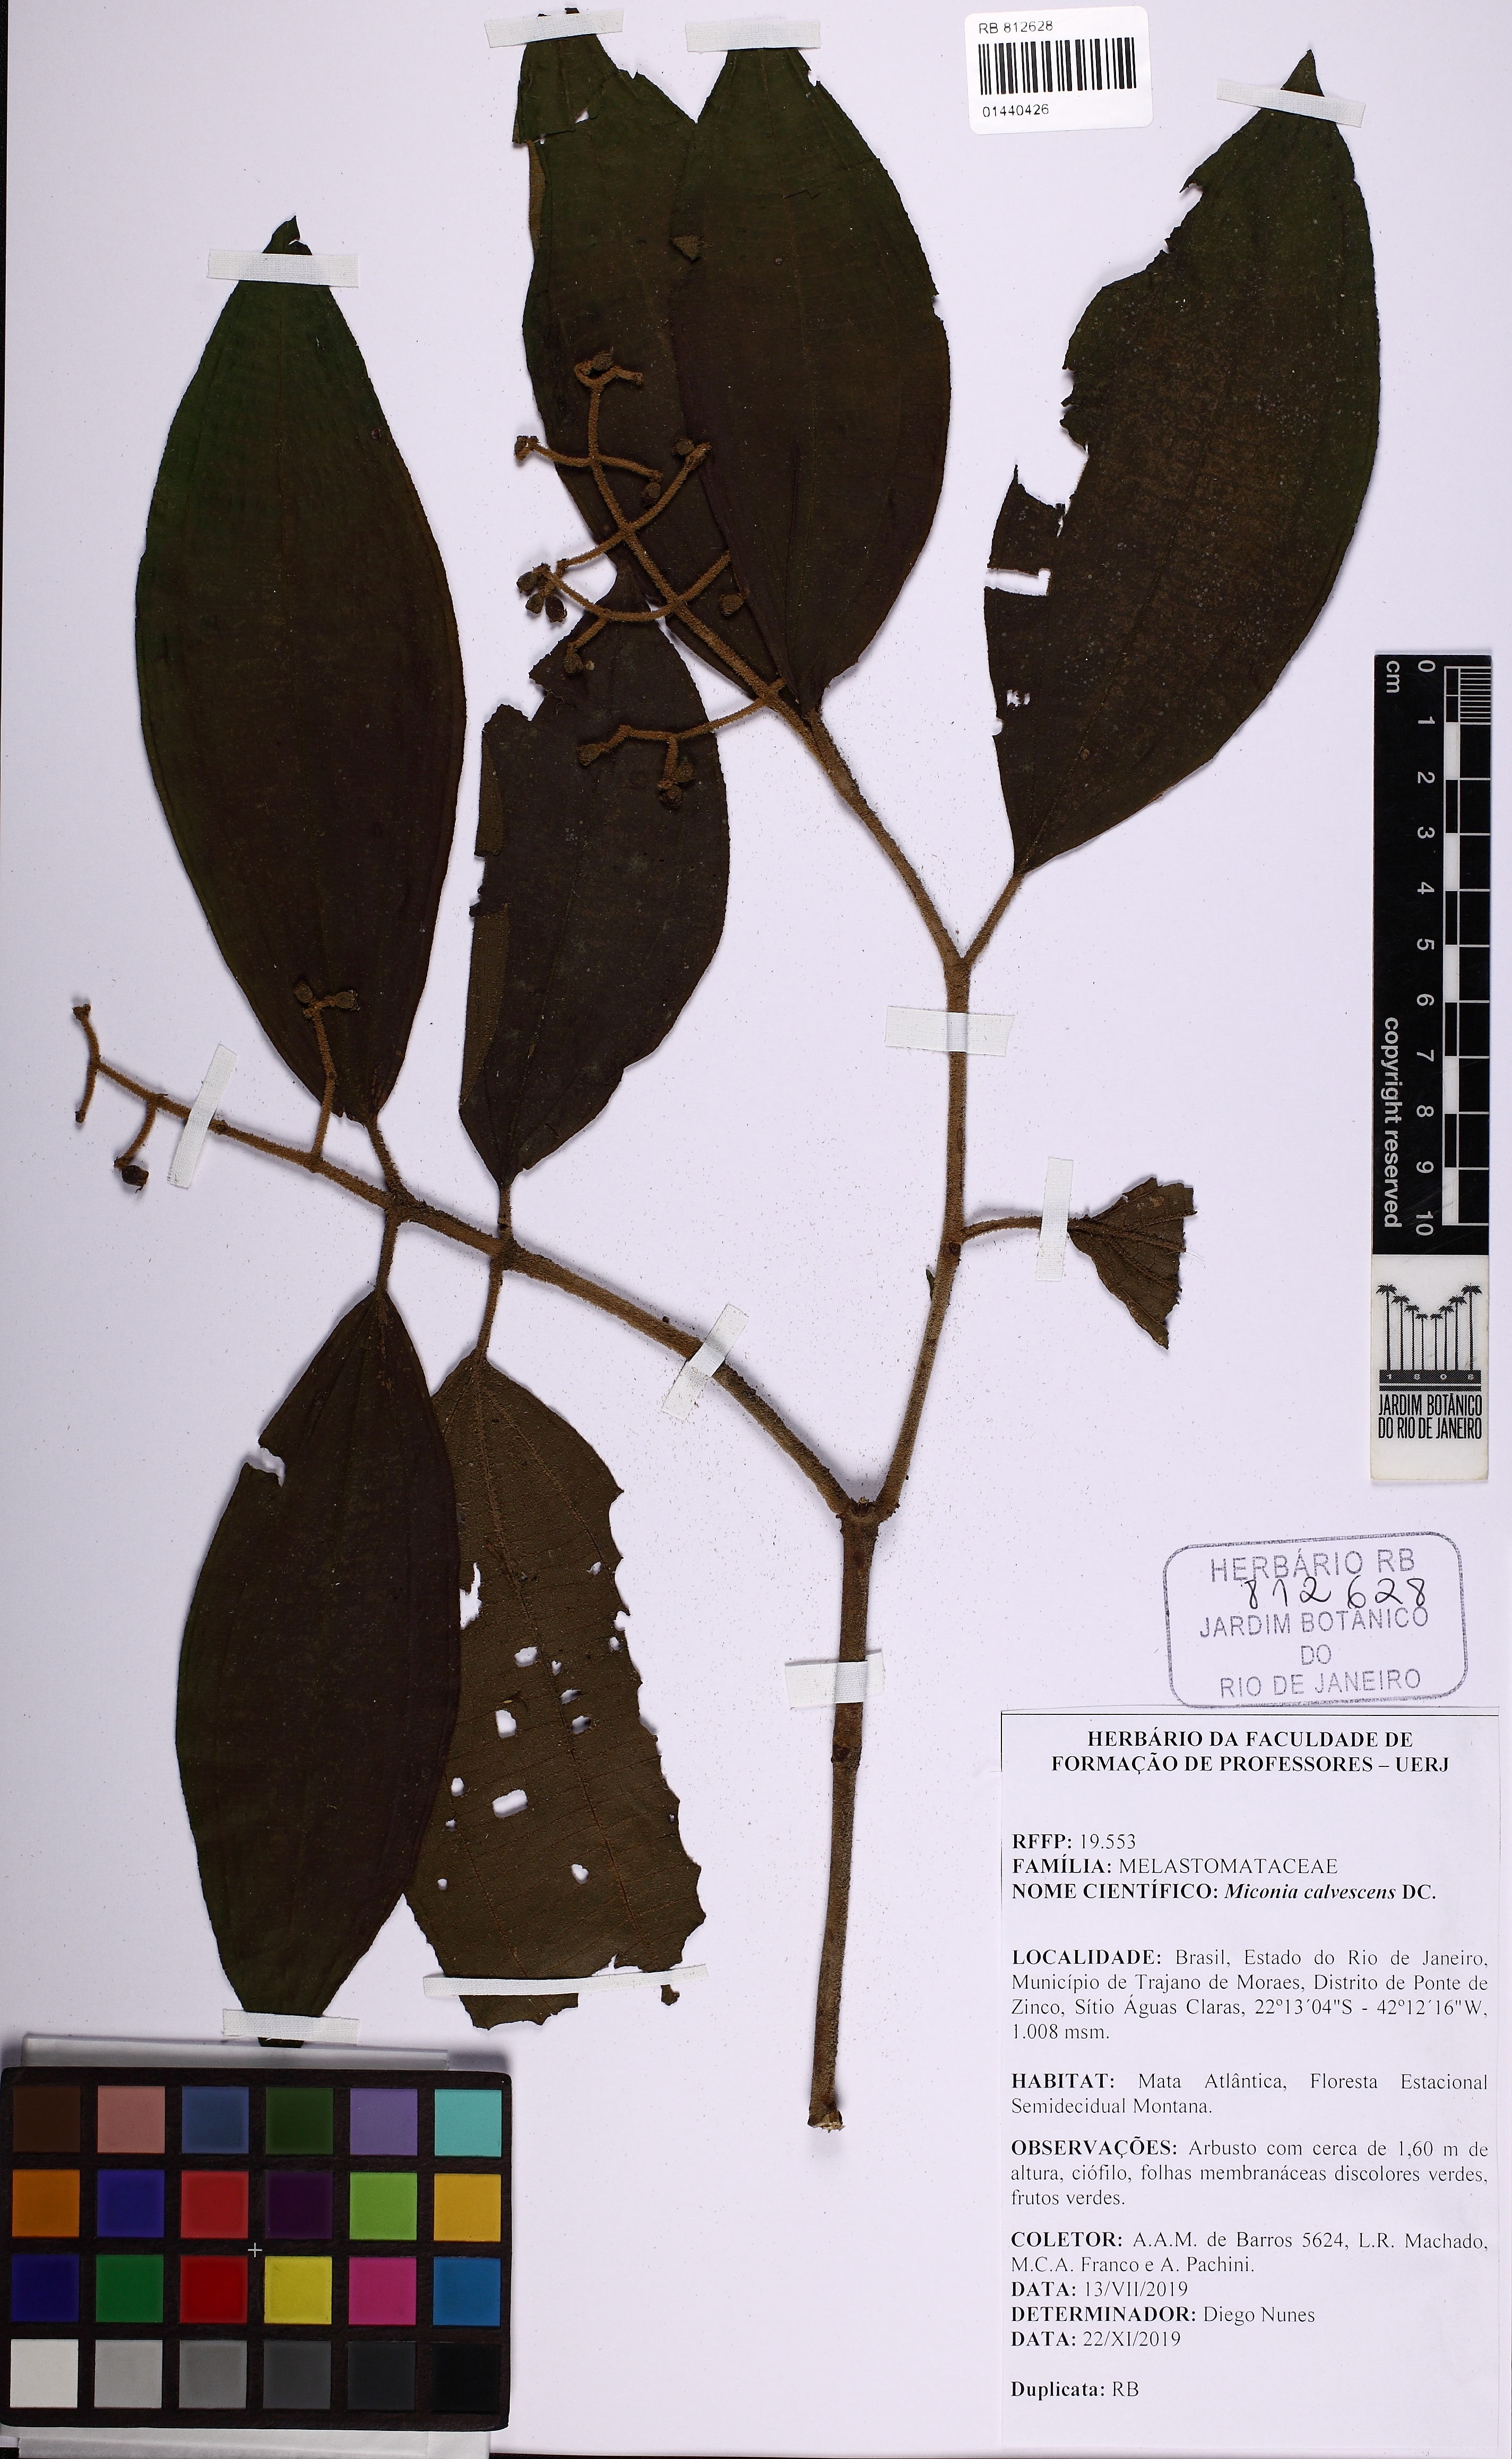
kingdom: Plantae
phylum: Tracheophyta
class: Magnoliopsida
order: Myrtales
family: Melastomataceae
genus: Miconia
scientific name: Miconia calvescens
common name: Purple plague
